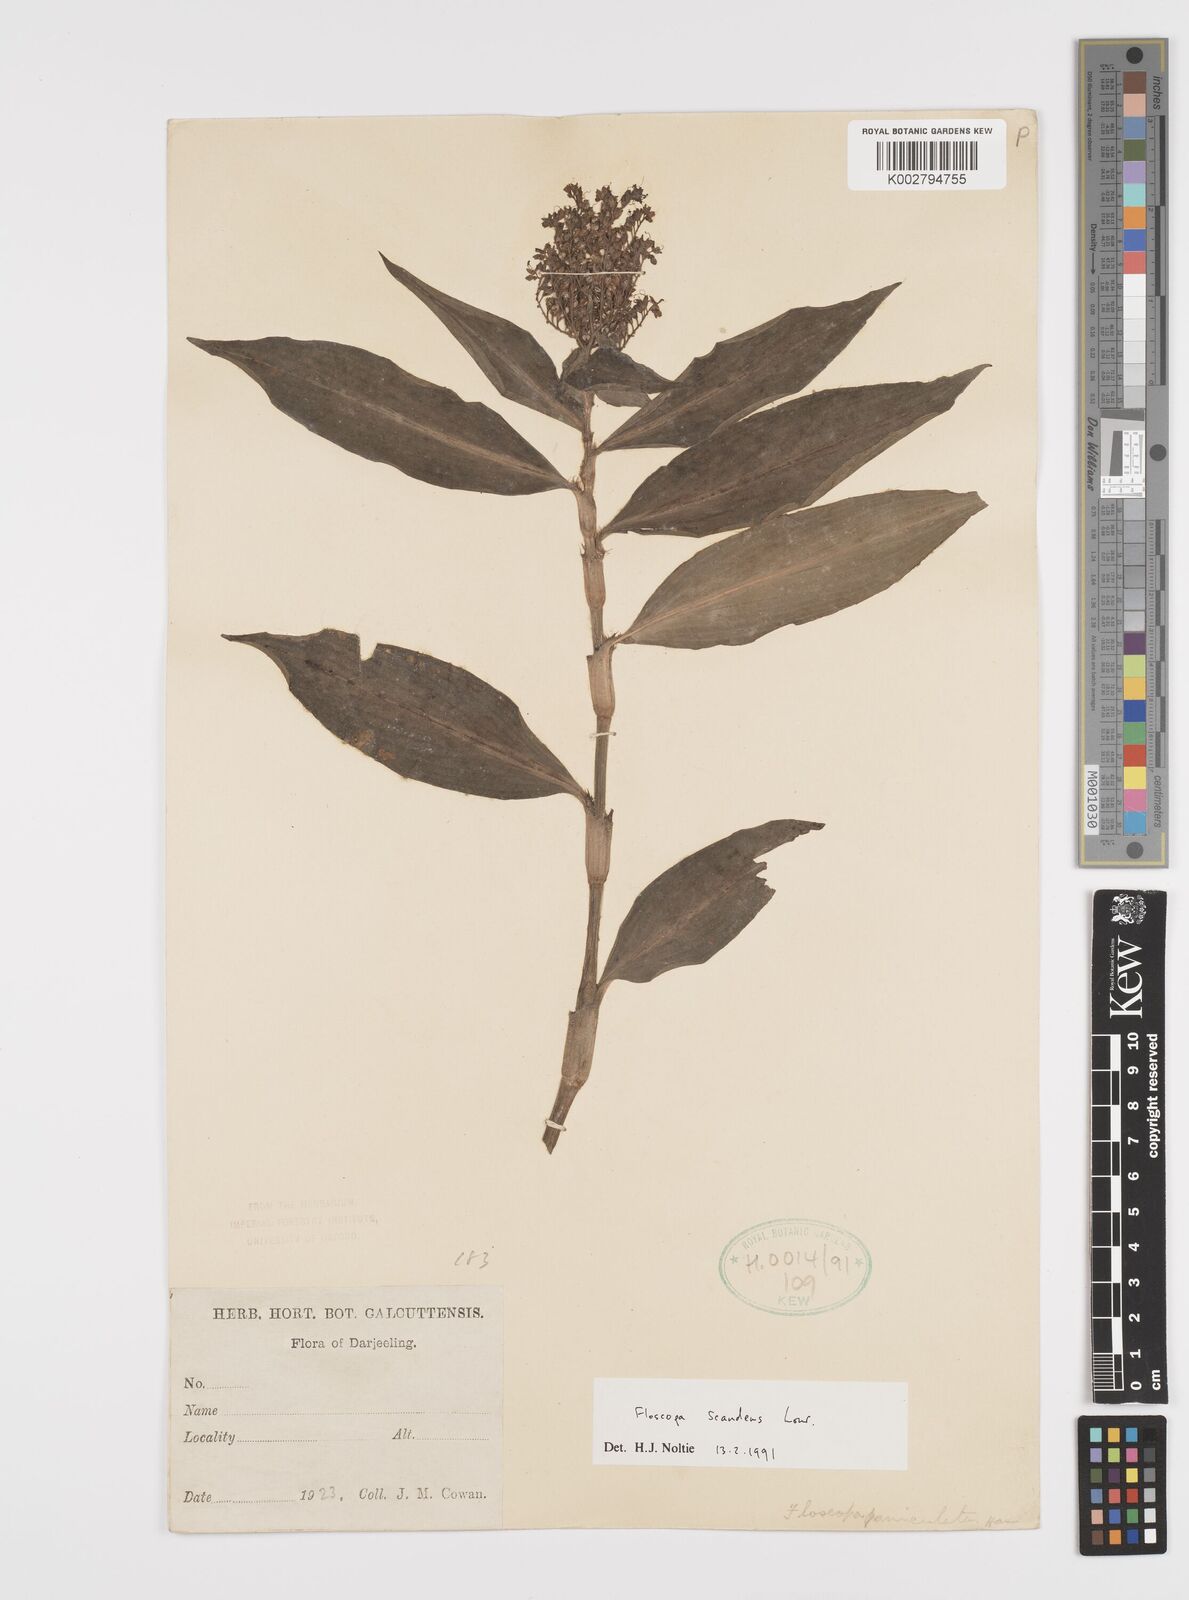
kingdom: Plantae
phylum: Tracheophyta
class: Liliopsida
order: Commelinales
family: Commelinaceae
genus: Floscopa
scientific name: Floscopa scandens
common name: Climbing flower cup
